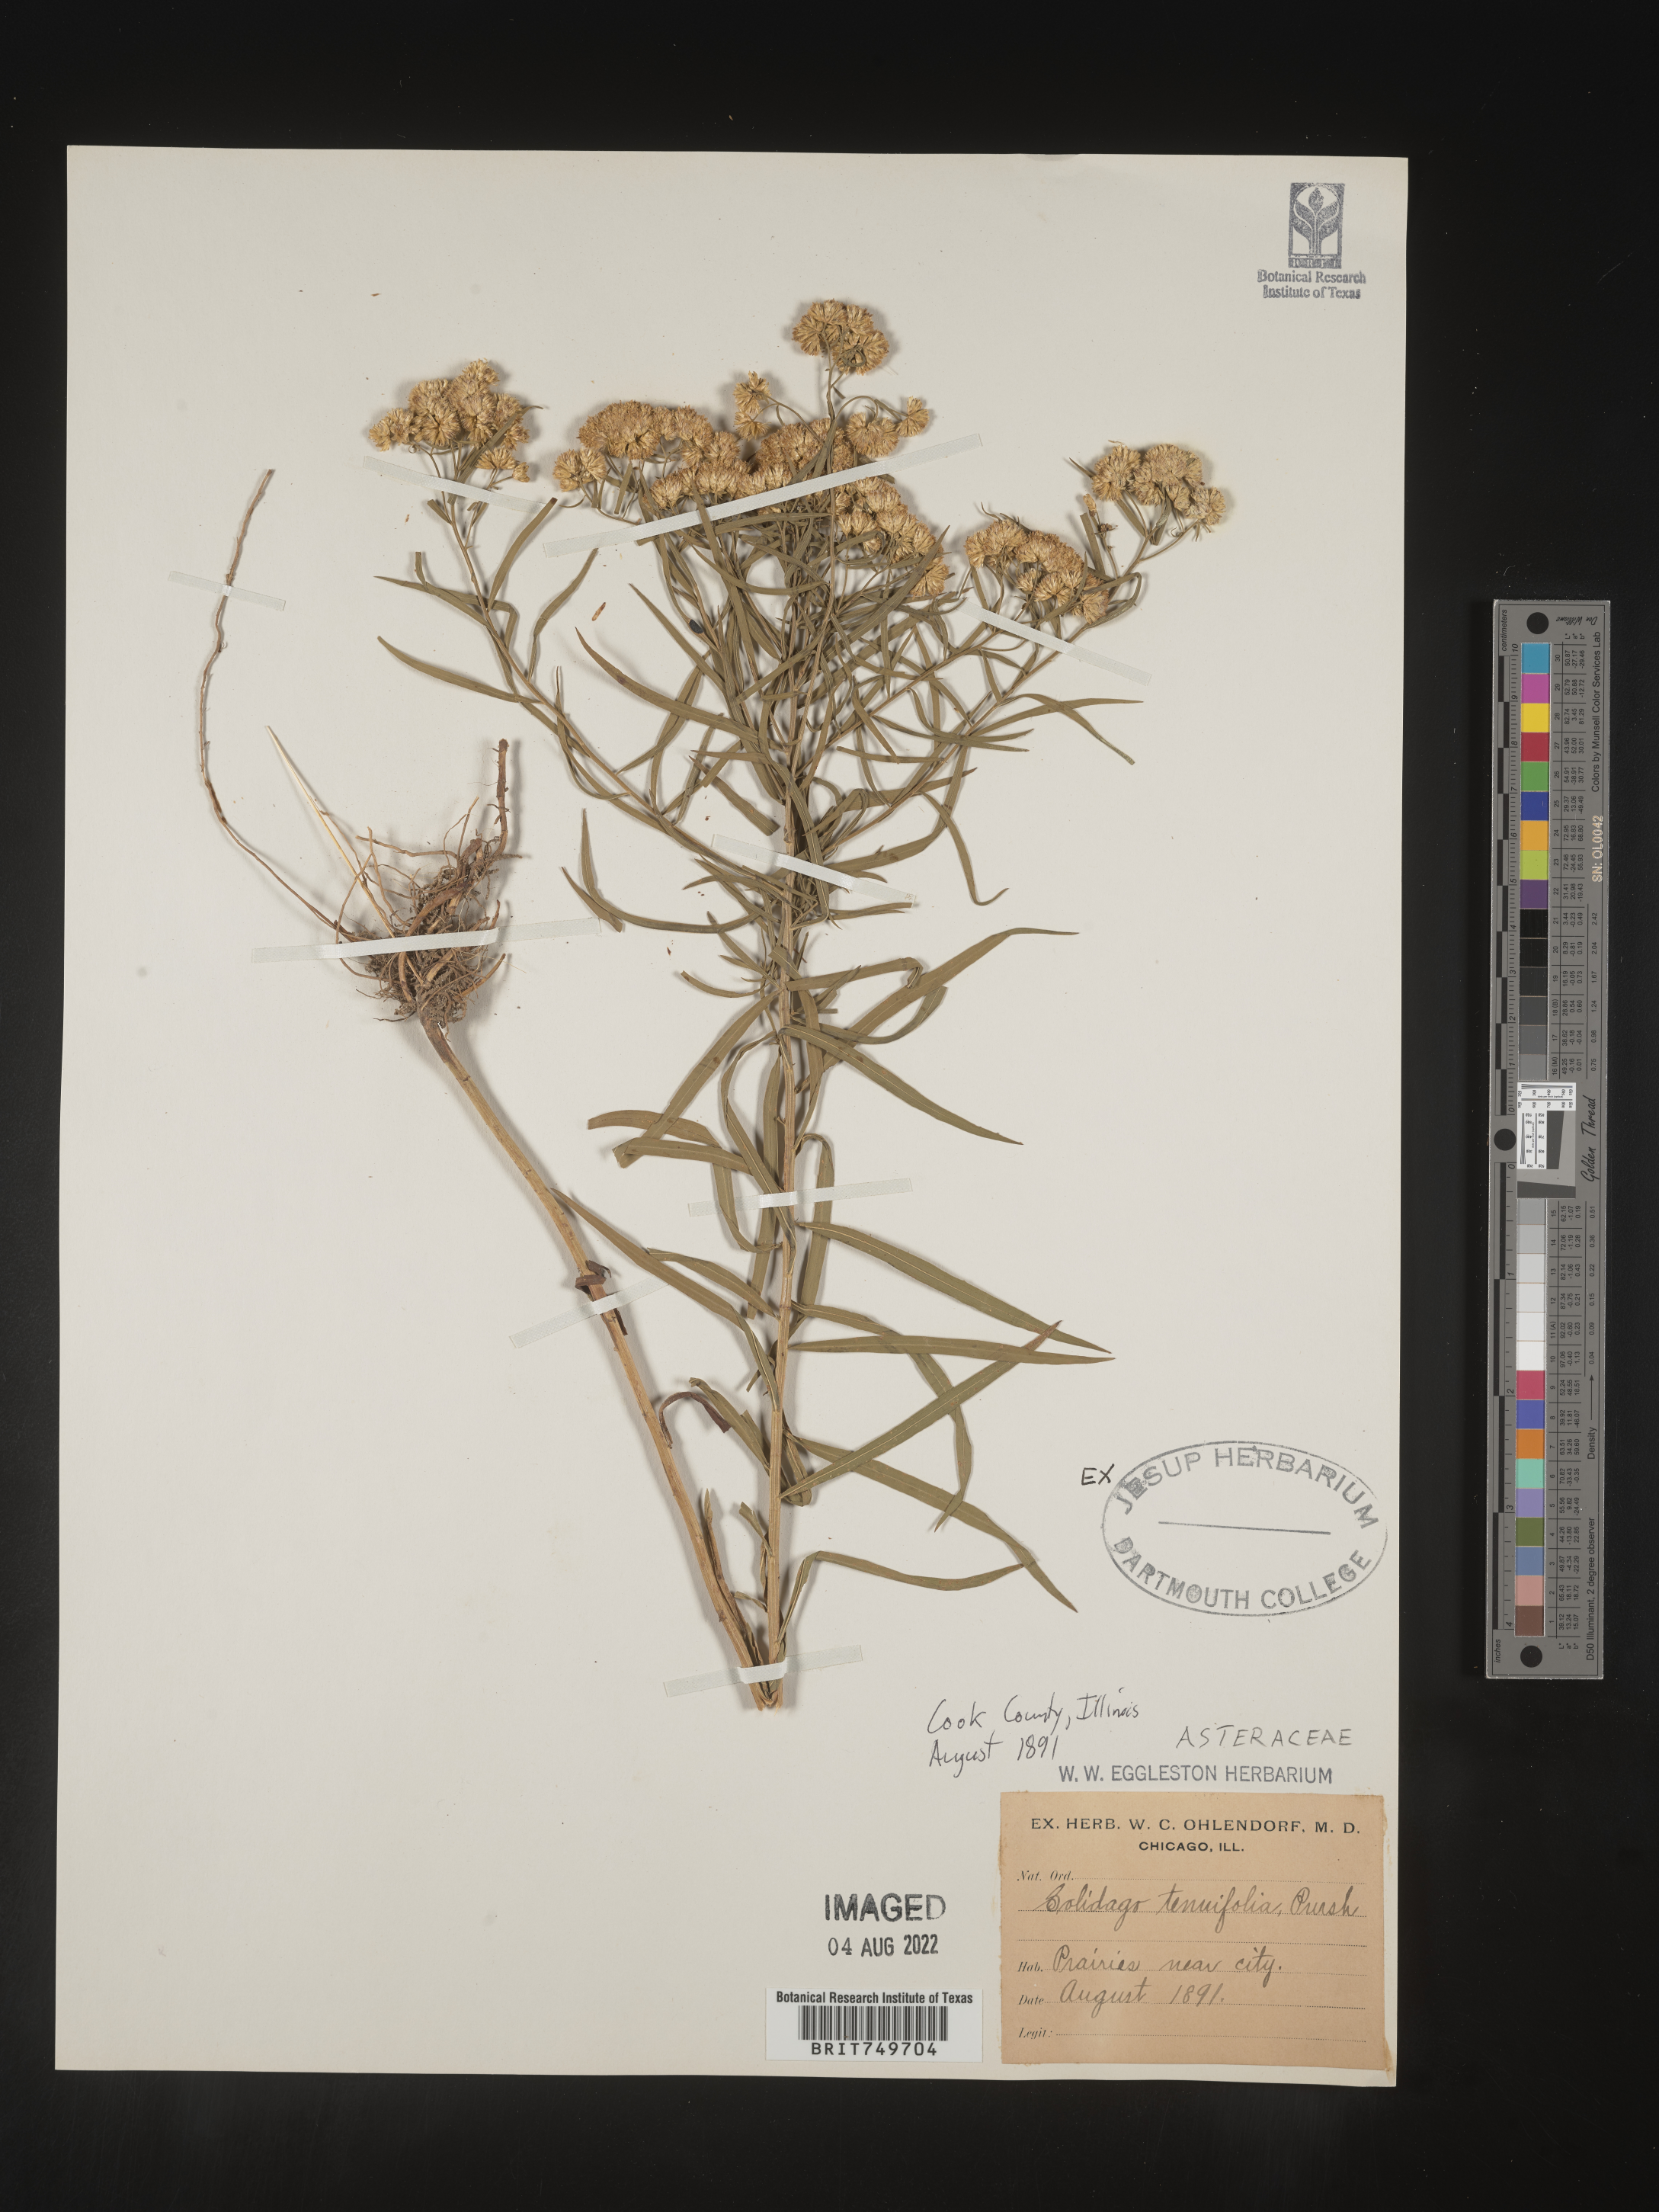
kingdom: Plantae
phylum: Tracheophyta
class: Magnoliopsida
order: Asterales
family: Asteraceae
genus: Euthamia
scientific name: Euthamia caroliniana
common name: Coastal plain goldentop
